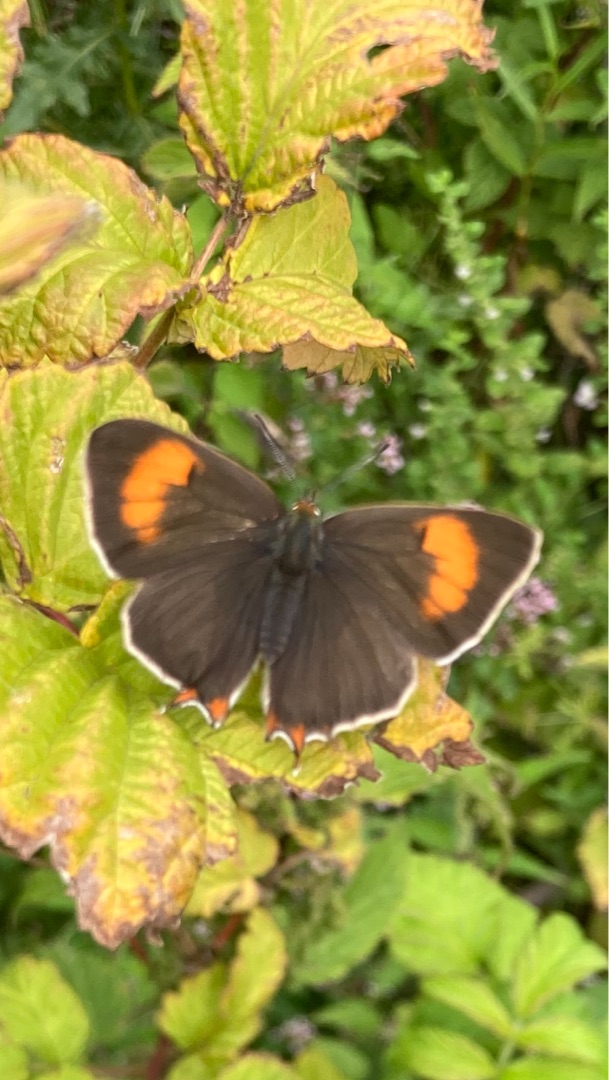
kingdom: Animalia
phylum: Arthropoda
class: Insecta
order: Lepidoptera
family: Lycaenidae
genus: Thecla
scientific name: Thecla betulae
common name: Guldhale
